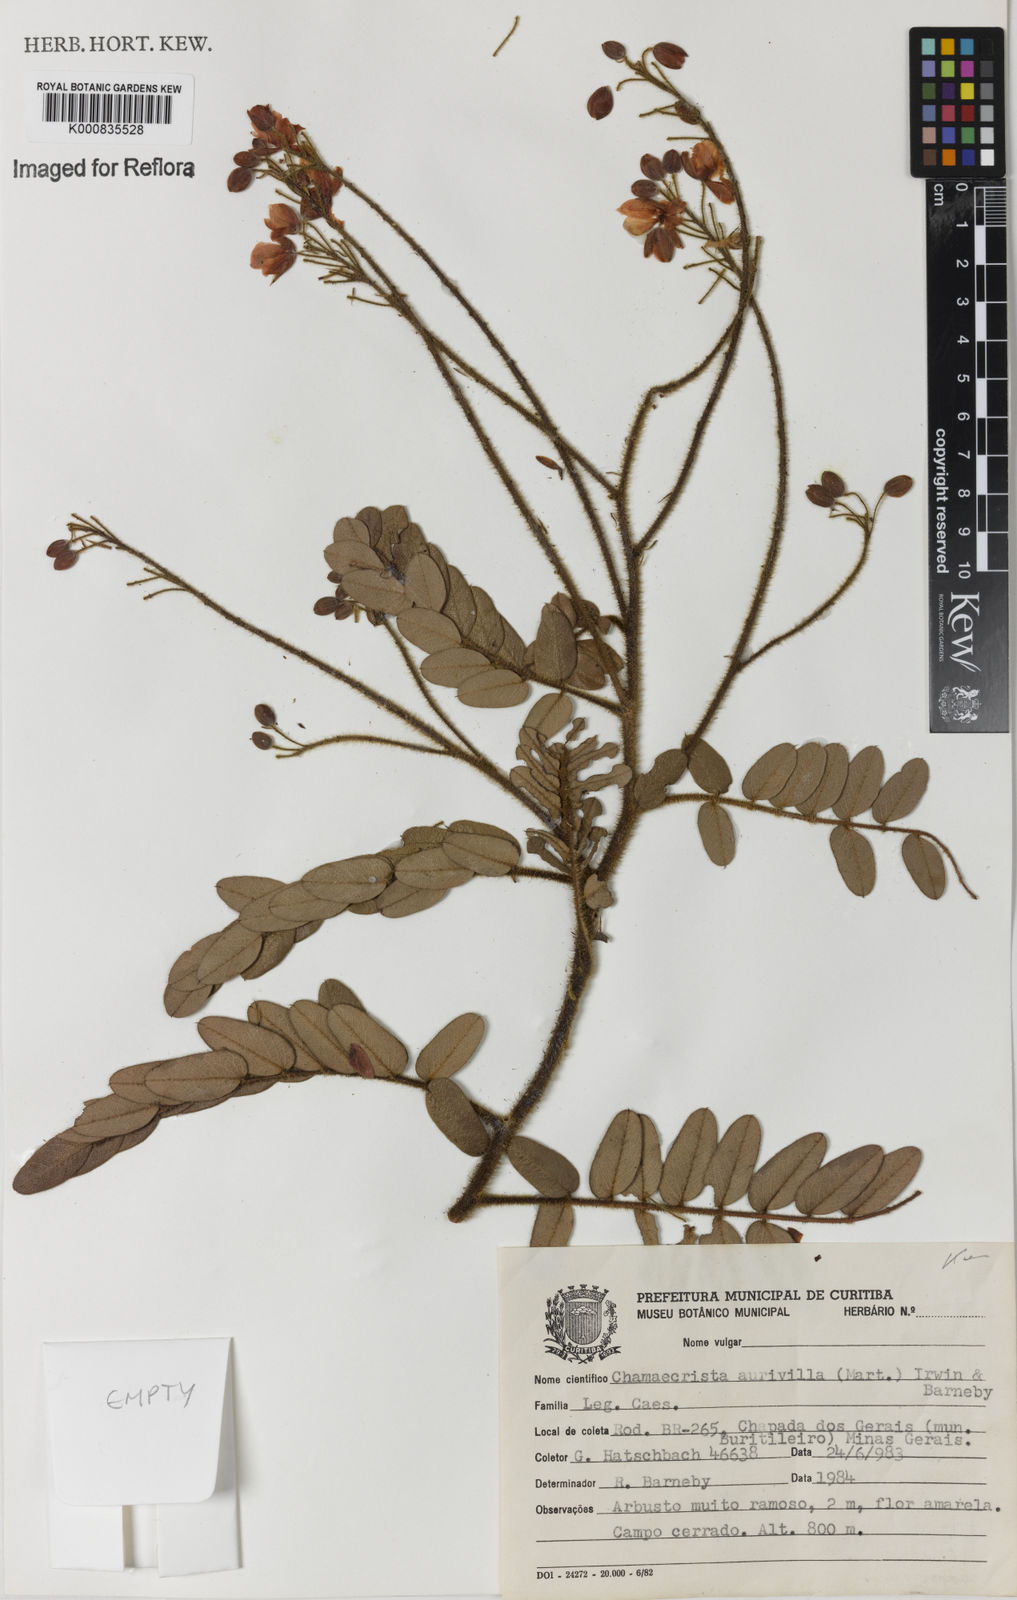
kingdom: Plantae
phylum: Tracheophyta
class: Magnoliopsida
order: Fabales
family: Fabaceae
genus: Chamaecrista
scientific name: Chamaecrista aurivilla
